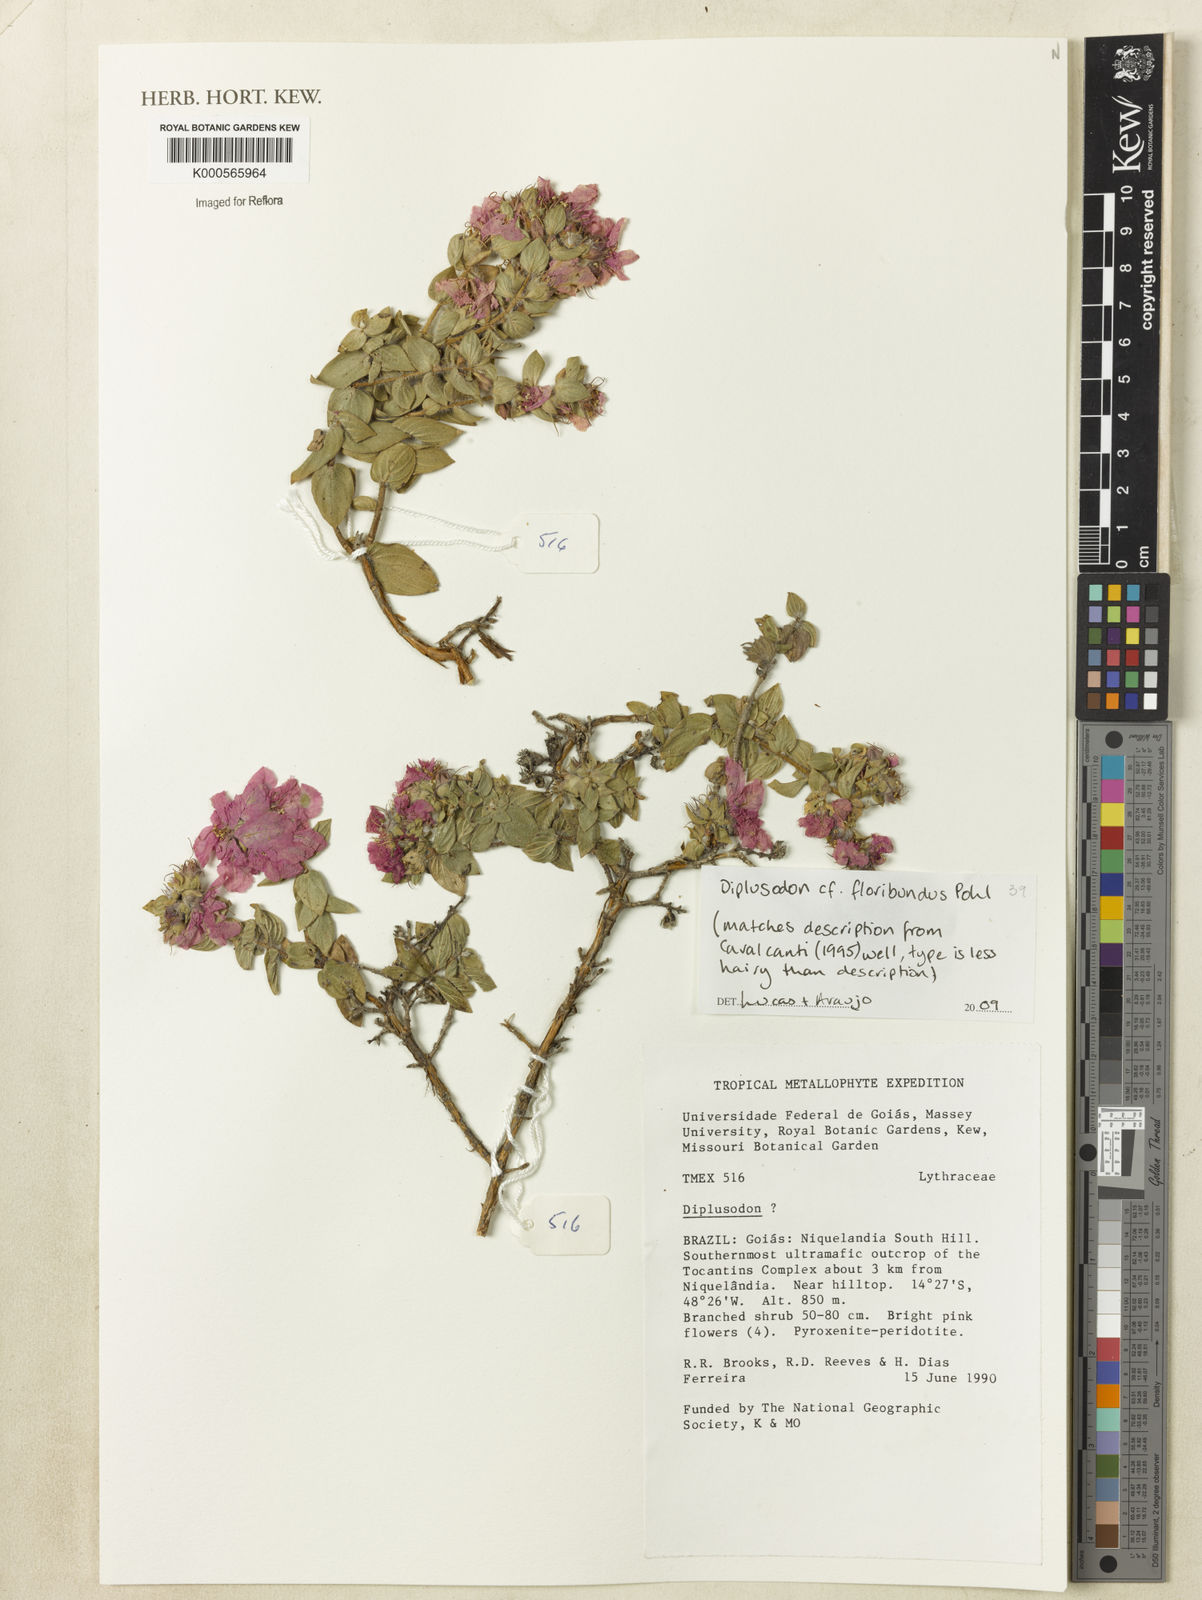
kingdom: Plantae
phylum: Tracheophyta
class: Magnoliopsida
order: Myrtales
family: Lythraceae
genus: Diplusodon
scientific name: Diplusodon floribundus
